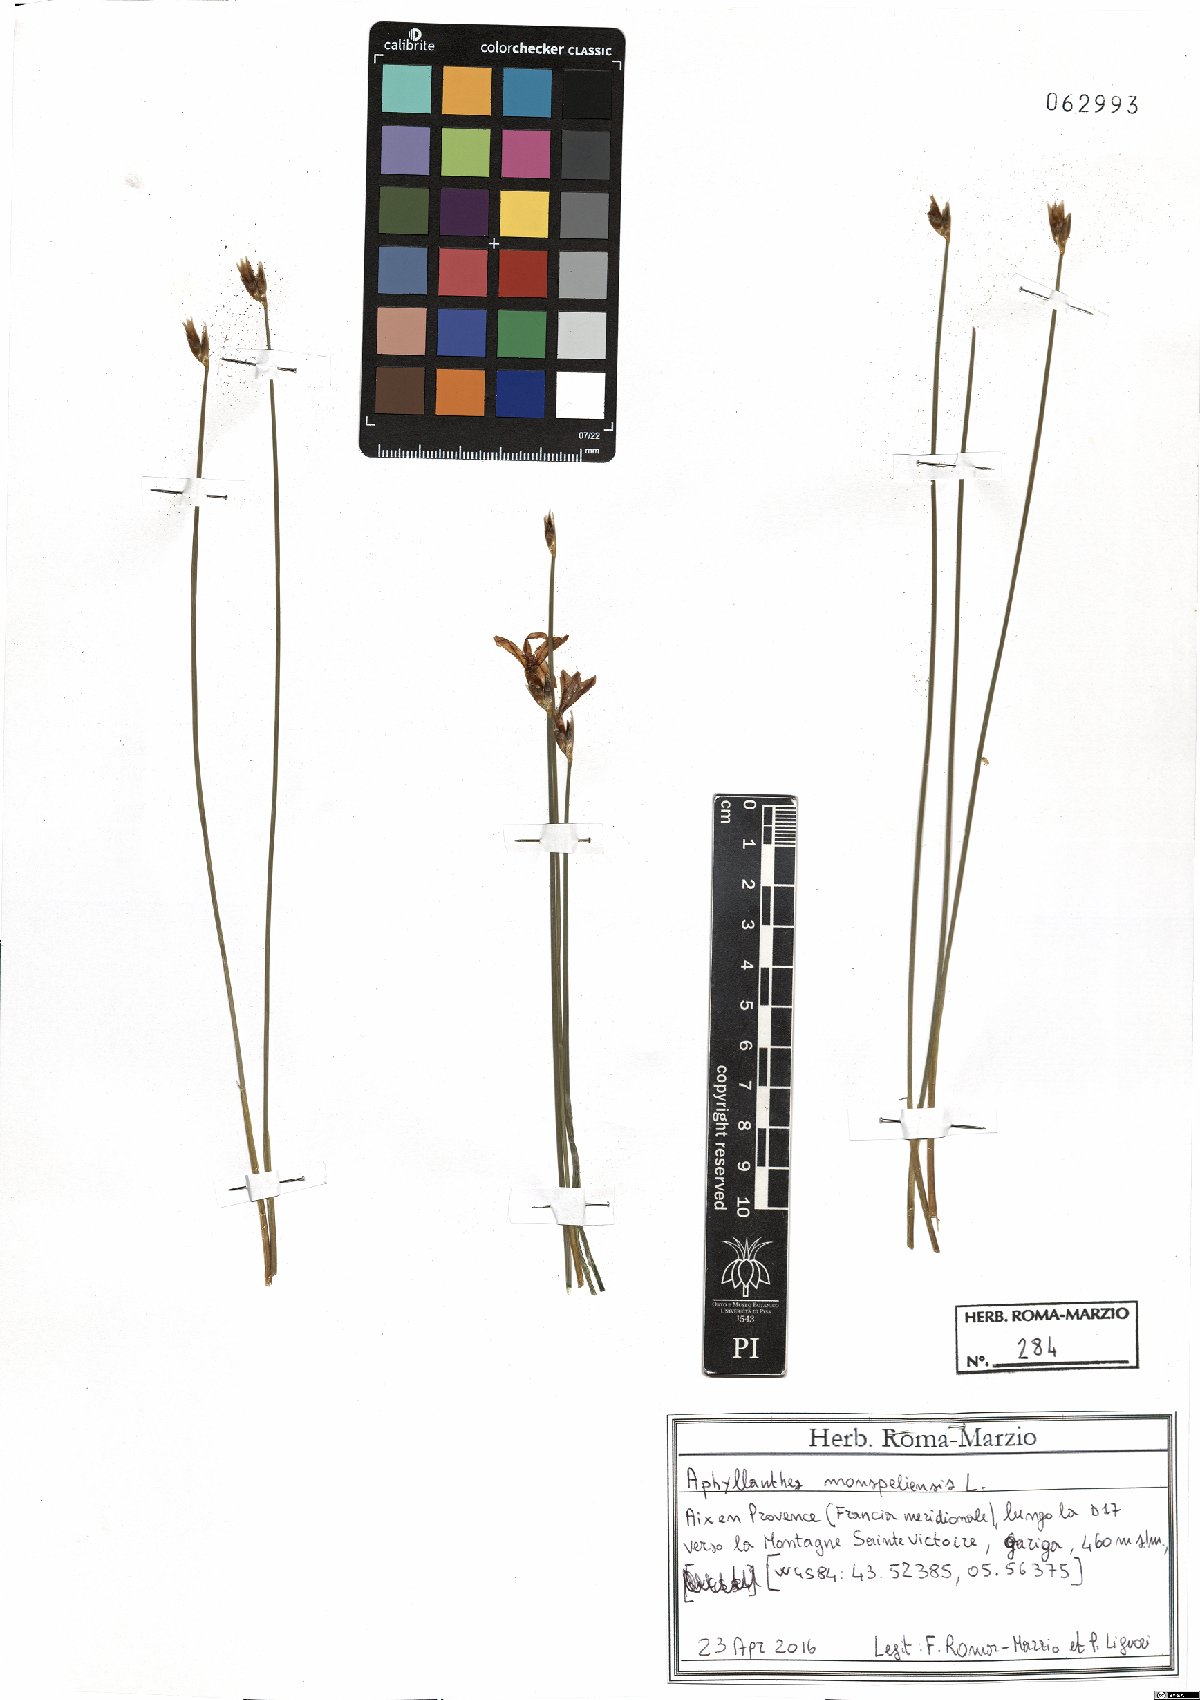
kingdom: Plantae
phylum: Tracheophyta
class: Liliopsida
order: Asparagales
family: Asparagaceae
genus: Aphyllanthes
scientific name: Aphyllanthes monspeliensis
